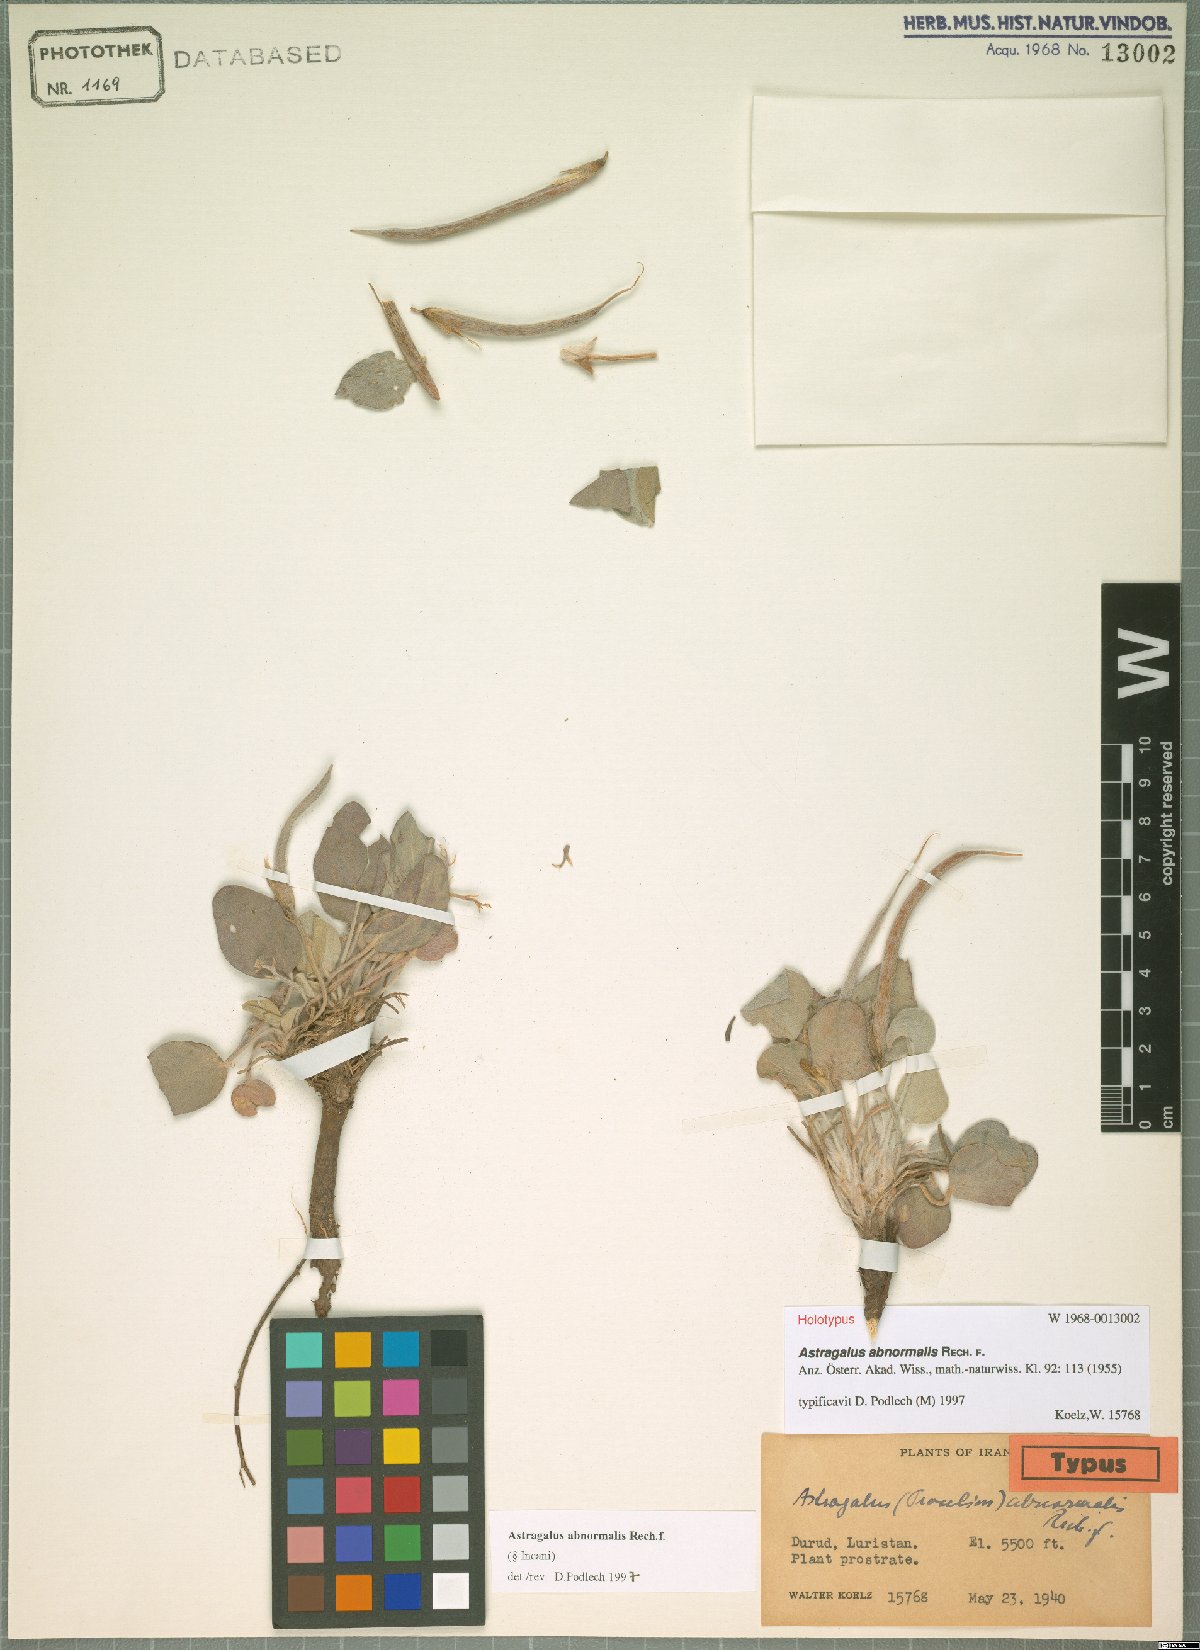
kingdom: Plantae
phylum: Tracheophyta
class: Magnoliopsida
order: Fabales
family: Fabaceae
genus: Astragalus
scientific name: Astragalus abnormalis
